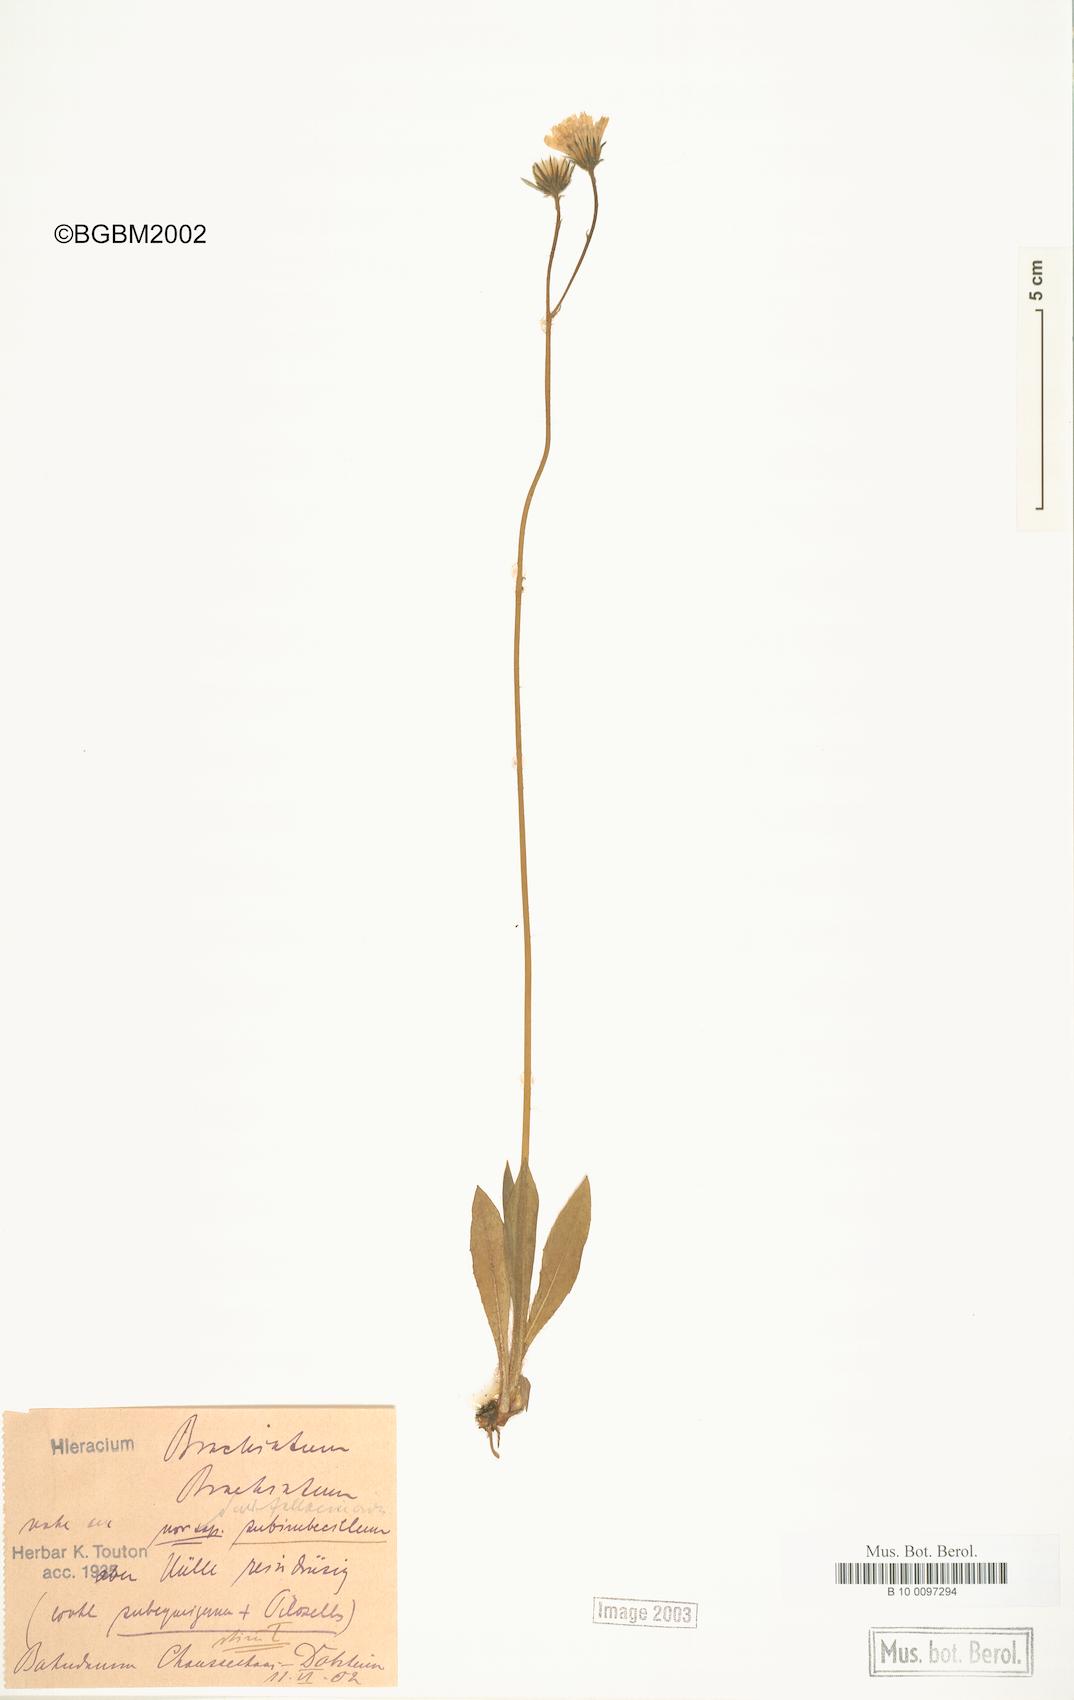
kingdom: Plantae
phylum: Tracheophyta
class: Magnoliopsida
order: Asterales
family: Asteraceae
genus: Pilosella
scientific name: Pilosella acutifolia
